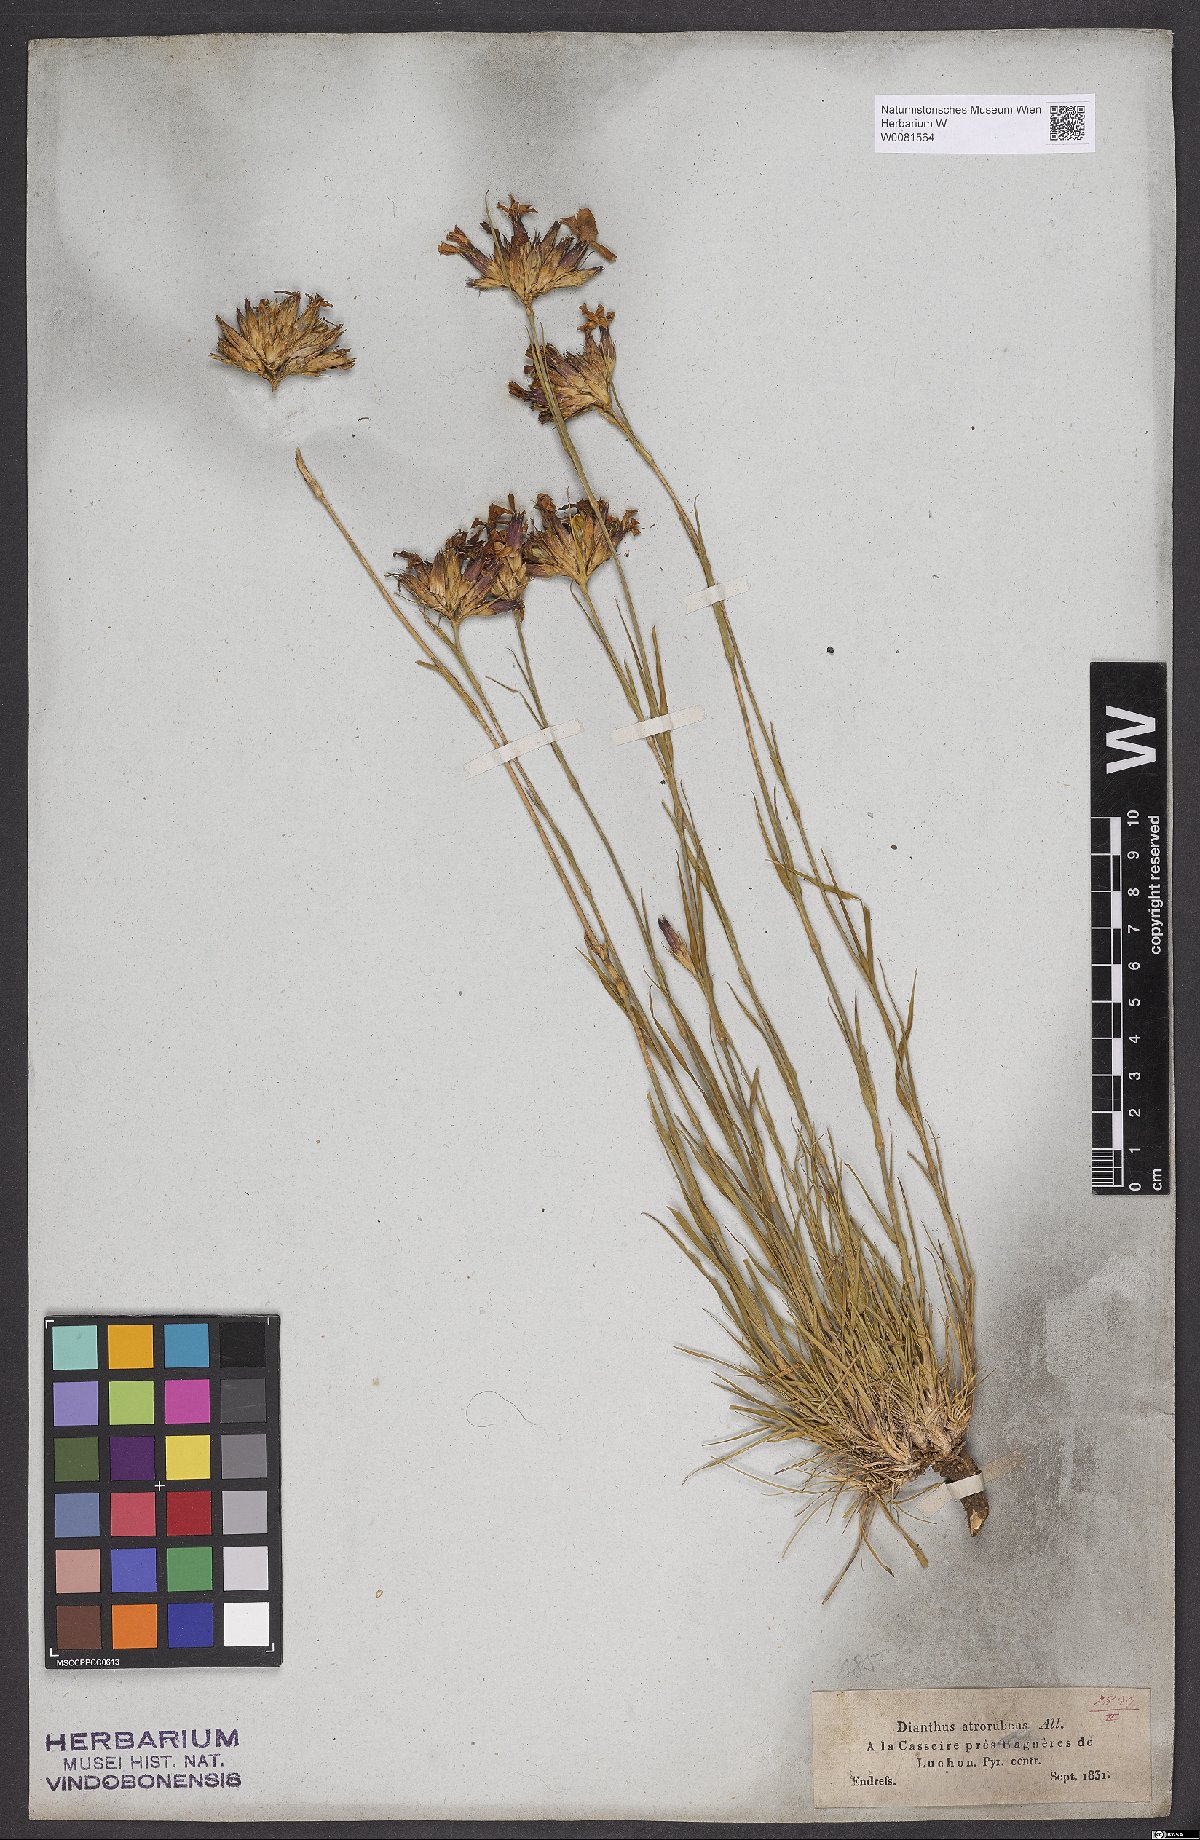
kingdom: Plantae
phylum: Tracheophyta
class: Magnoliopsida
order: Caryophyllales
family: Caryophyllaceae
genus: Dianthus
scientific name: Dianthus carthusianorum
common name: Carthusian pink
